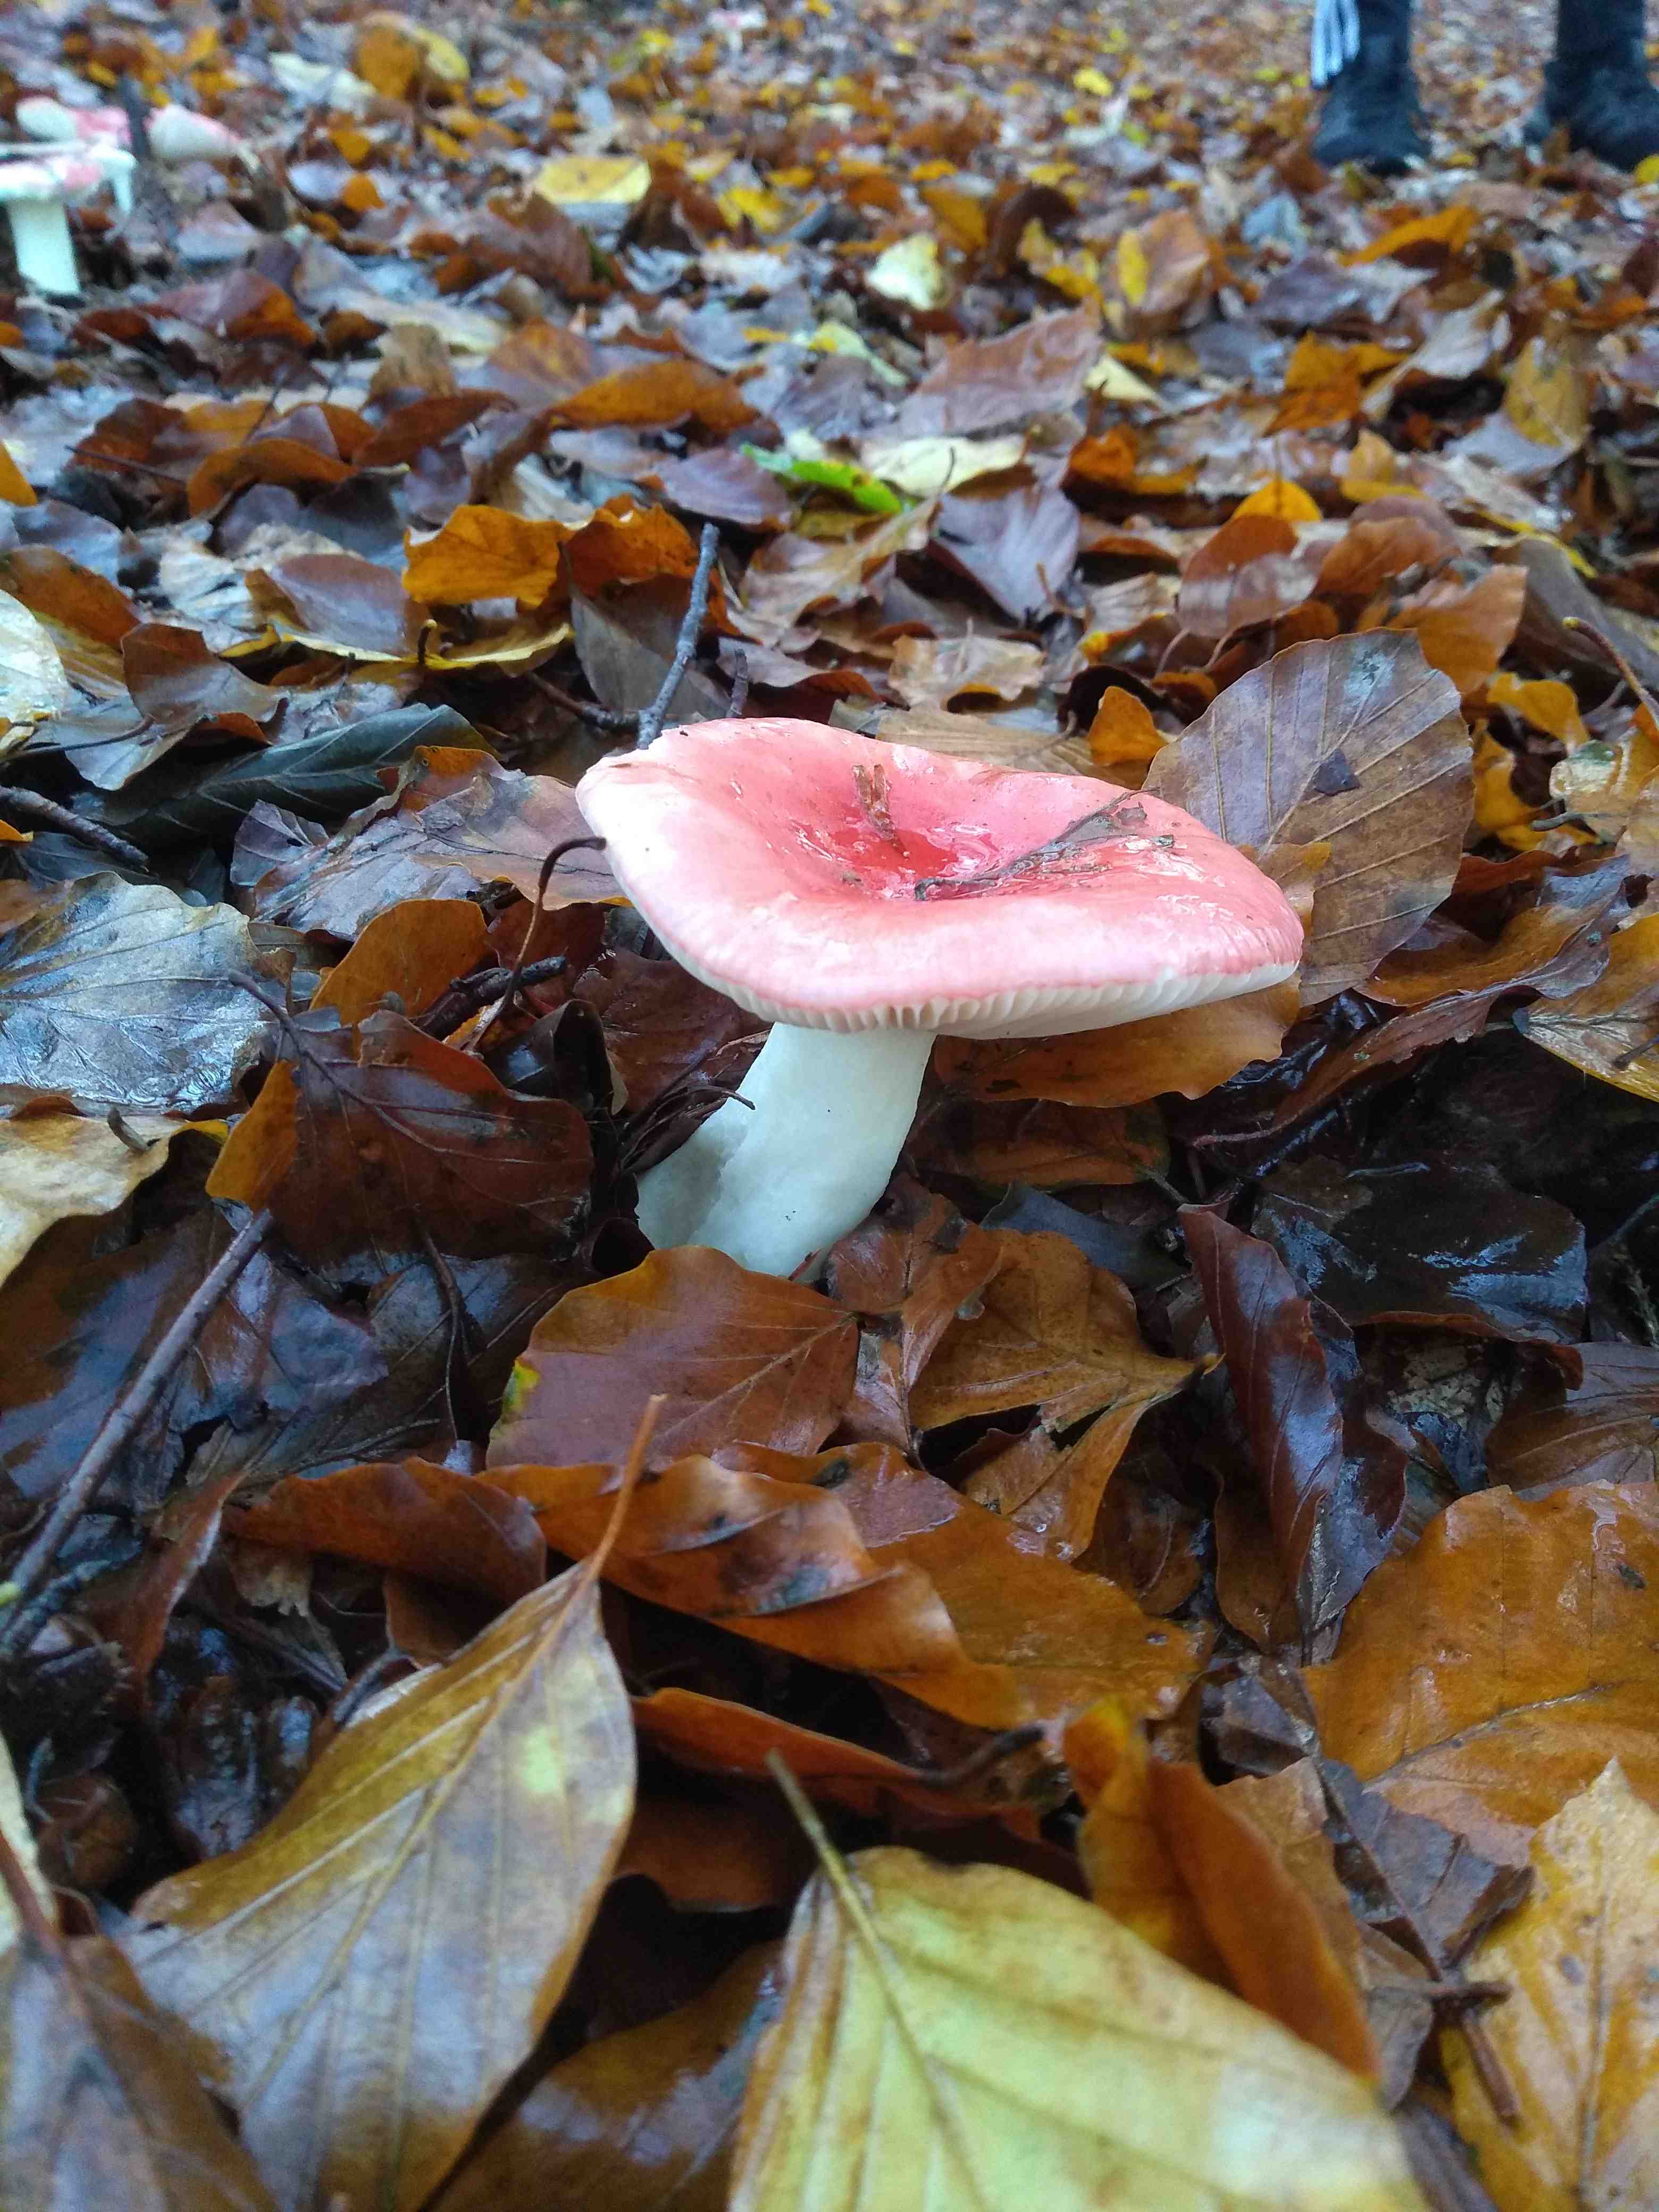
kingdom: Fungi
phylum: Basidiomycota
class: Agaricomycetes
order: Russulales
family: Russulaceae
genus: Russula
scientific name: Russula
